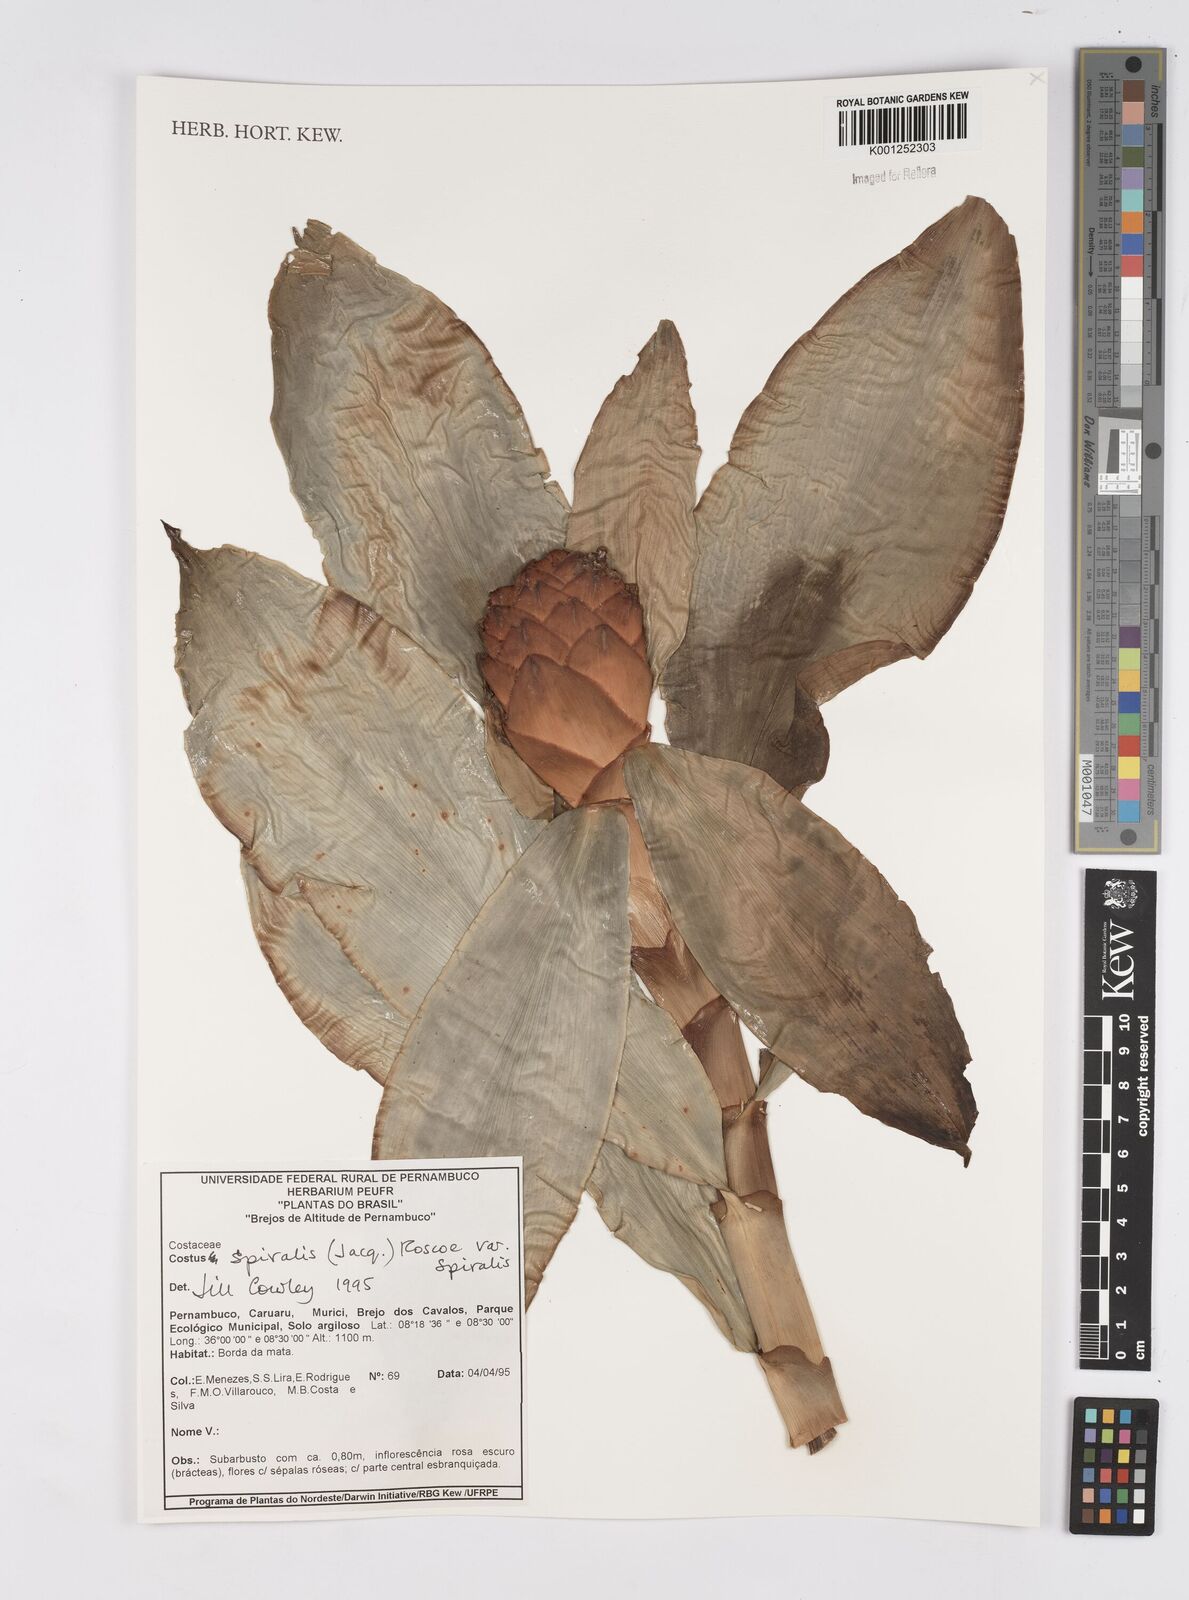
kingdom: Plantae
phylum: Tracheophyta
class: Liliopsida
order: Zingiberales
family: Costaceae
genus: Costus
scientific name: Costus spiralis
